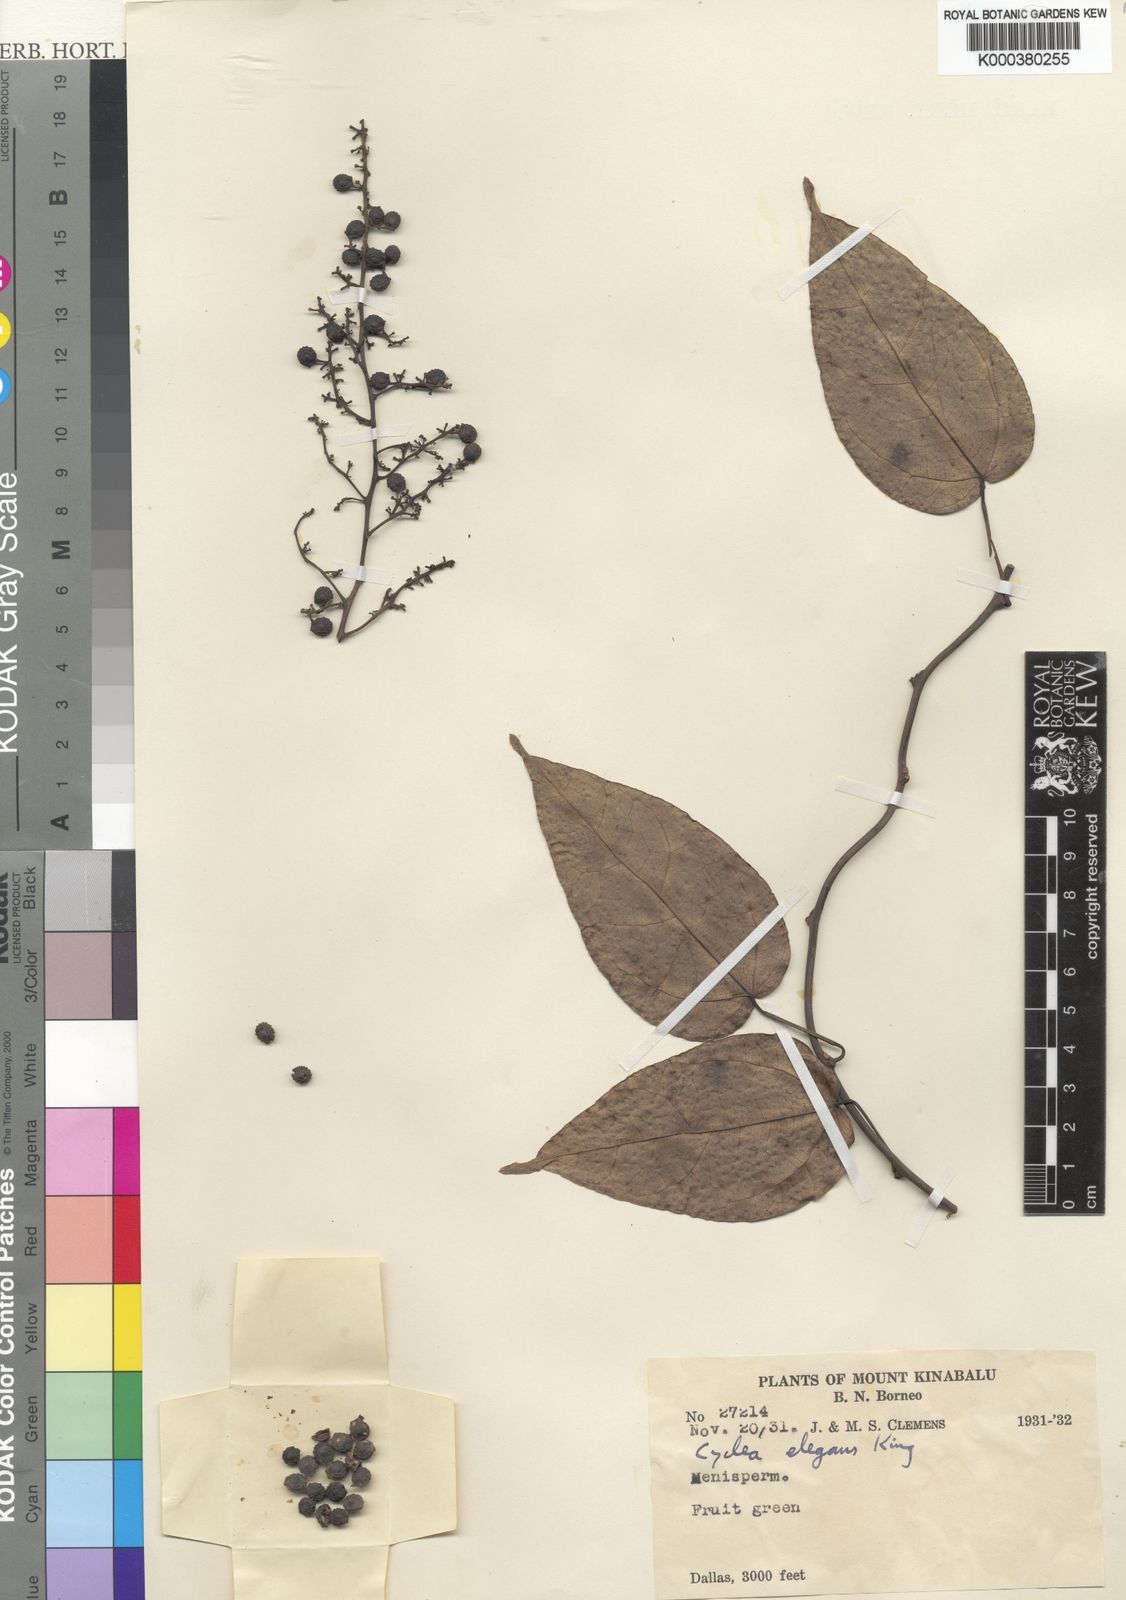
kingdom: Plantae
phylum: Tracheophyta
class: Magnoliopsida
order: Ranunculales
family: Menispermaceae
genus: Cyclea
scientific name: Cyclea elegans
